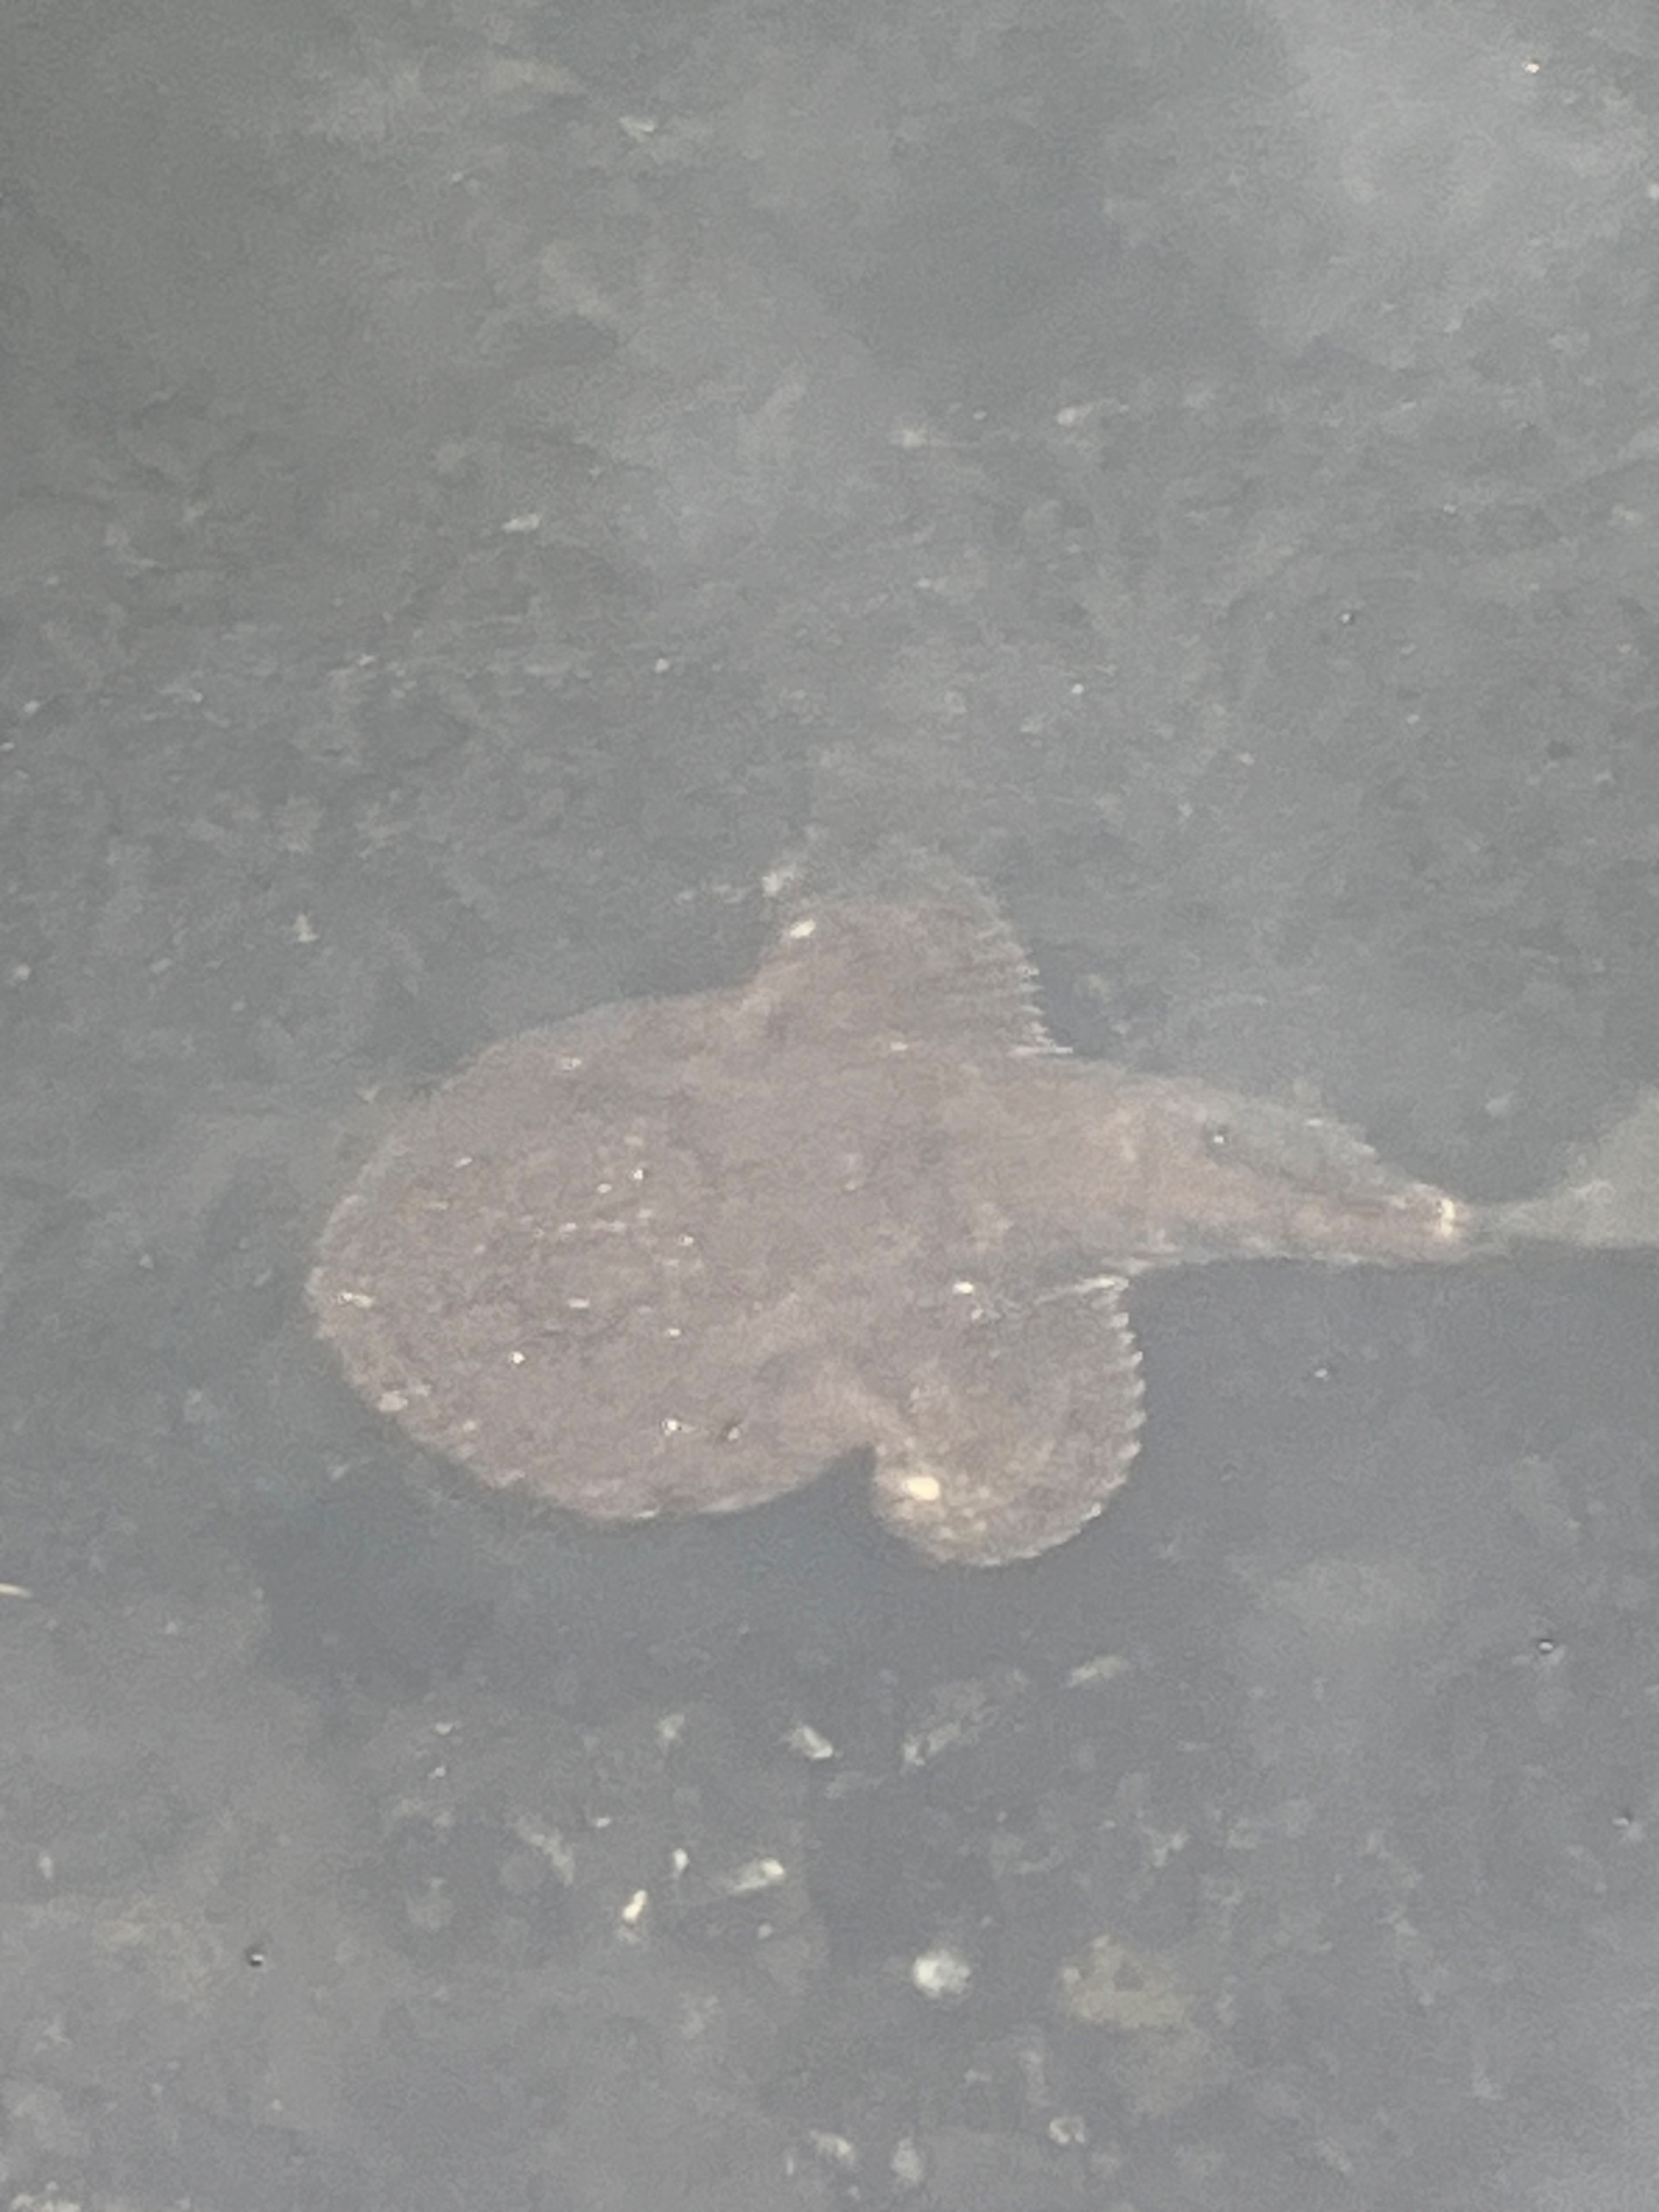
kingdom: Animalia
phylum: Chordata
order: Lophiiformes
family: Lophiidae
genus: Lophius
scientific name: Lophius piscatorius
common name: Havtaske
